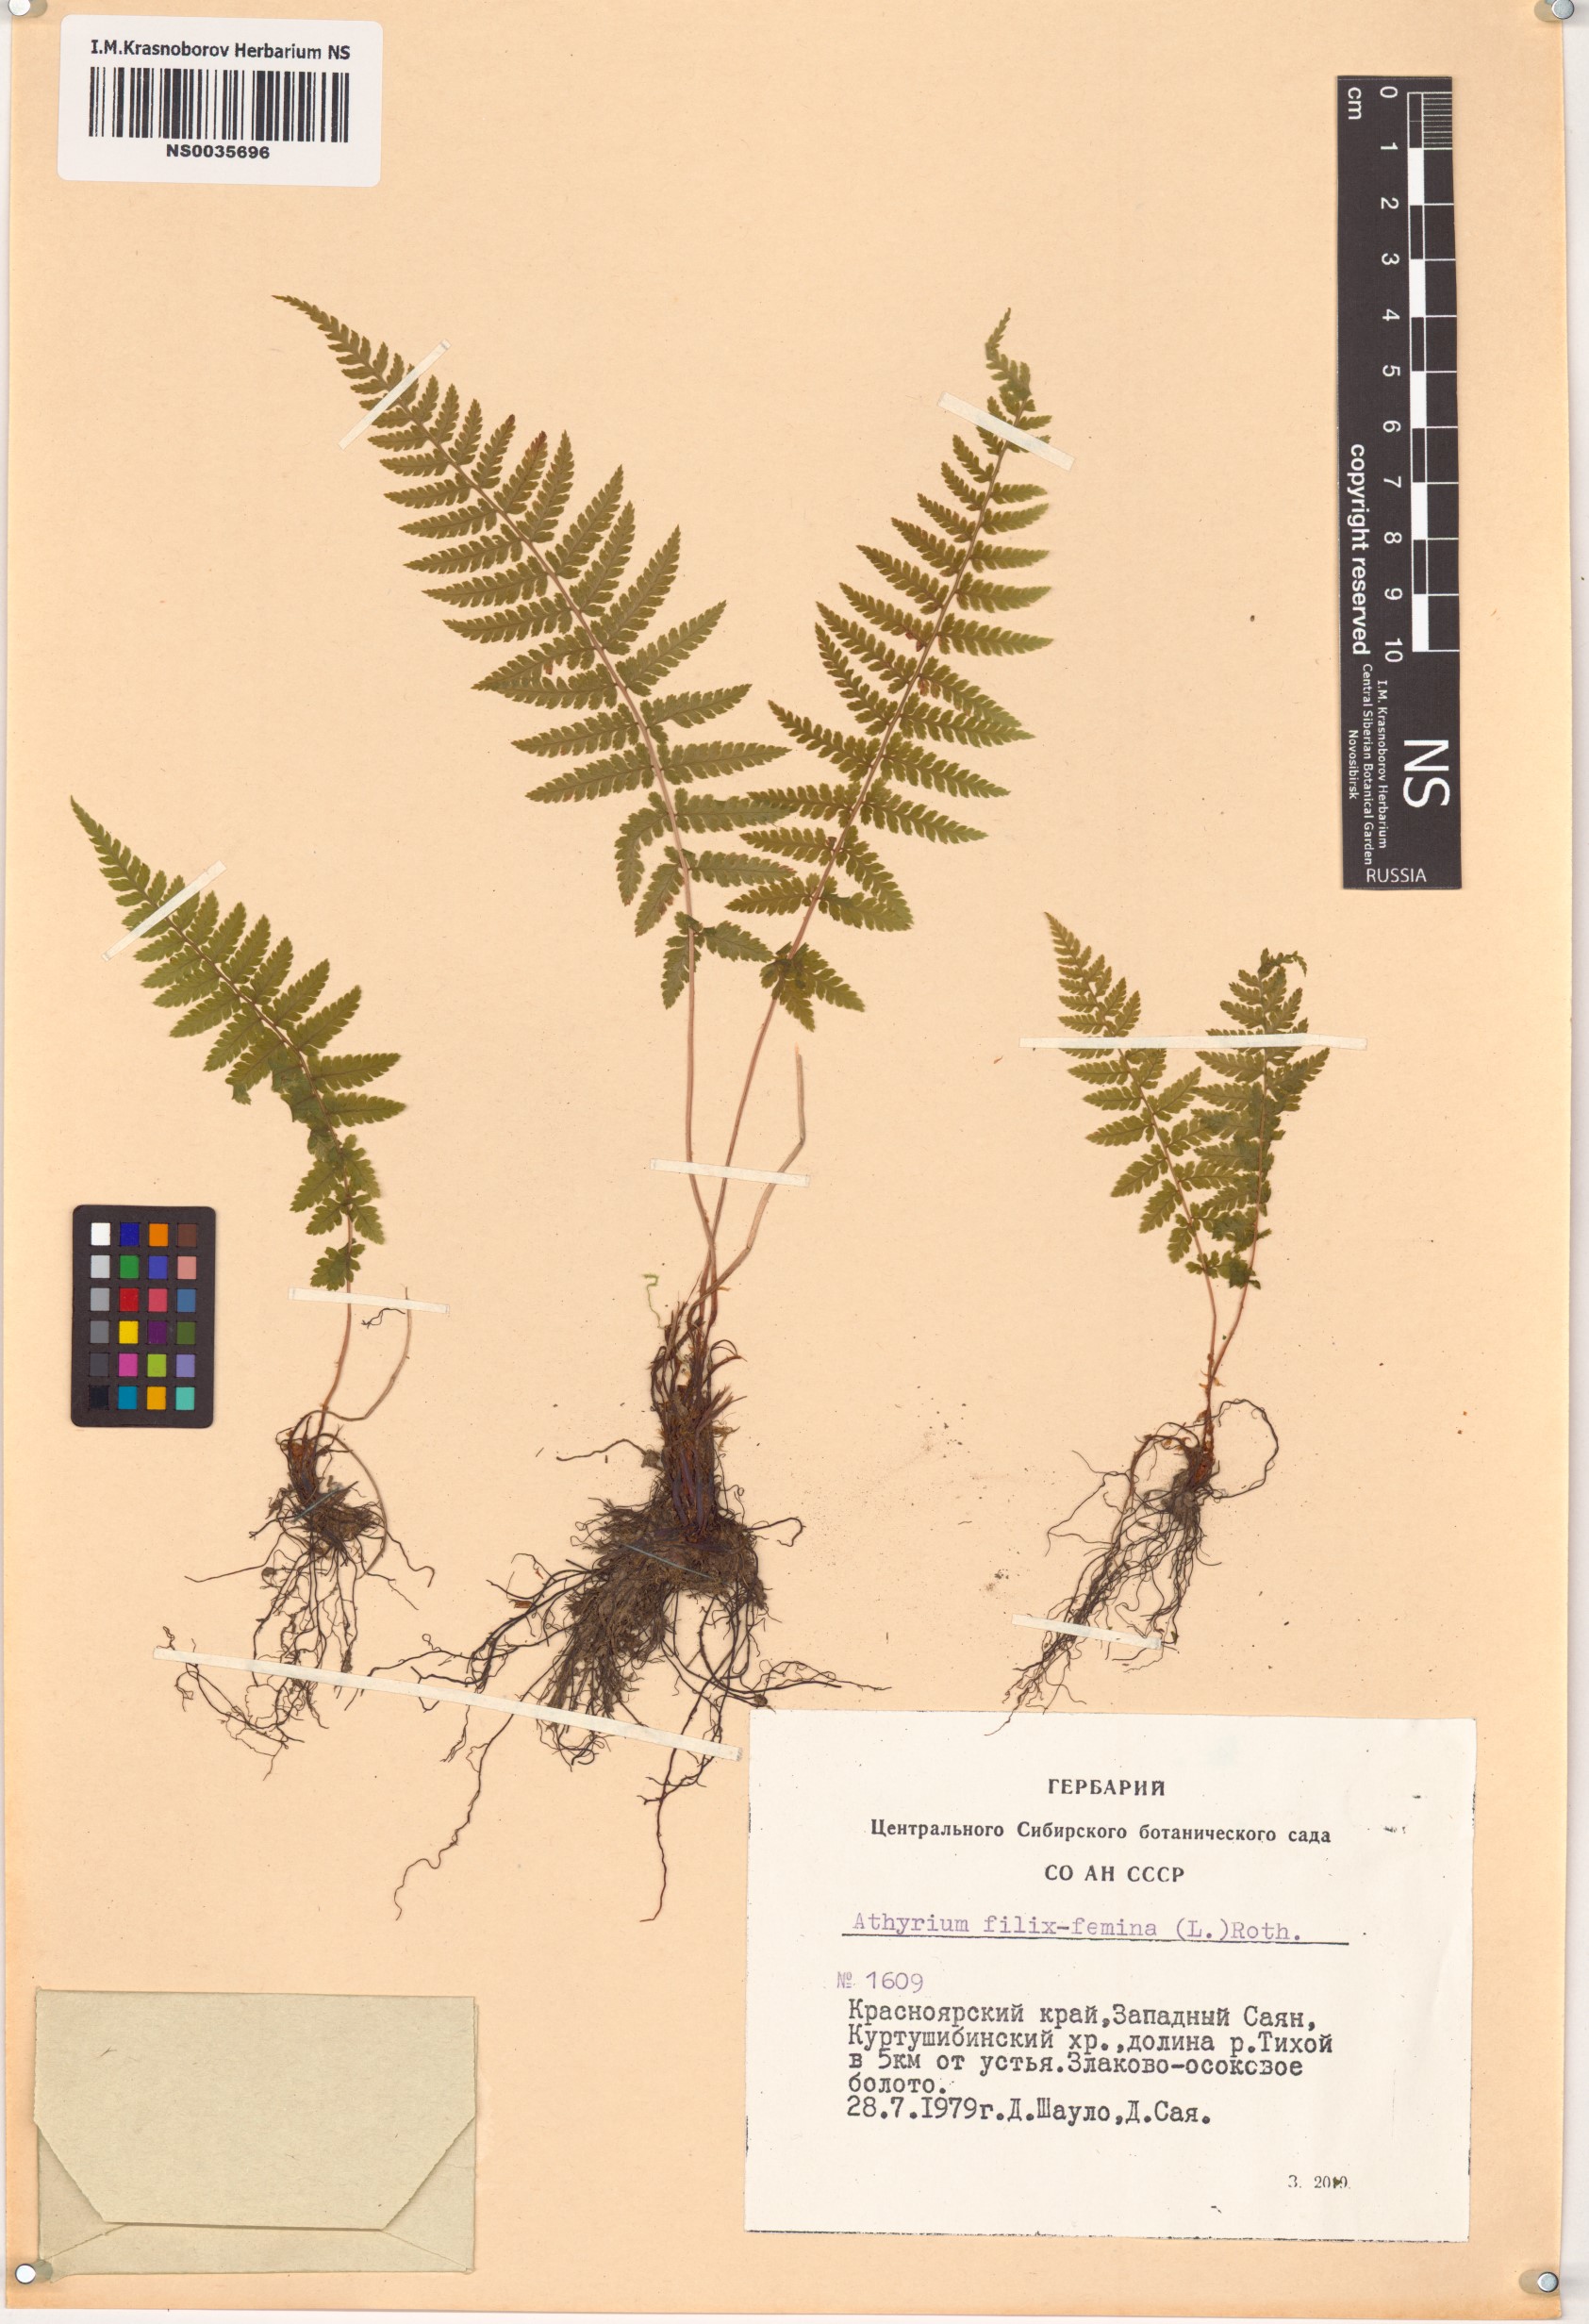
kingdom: Plantae
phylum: Tracheophyta
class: Polypodiopsida
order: Polypodiales
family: Athyriaceae
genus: Athyrium
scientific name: Athyrium filix-femina
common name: Lady fern
